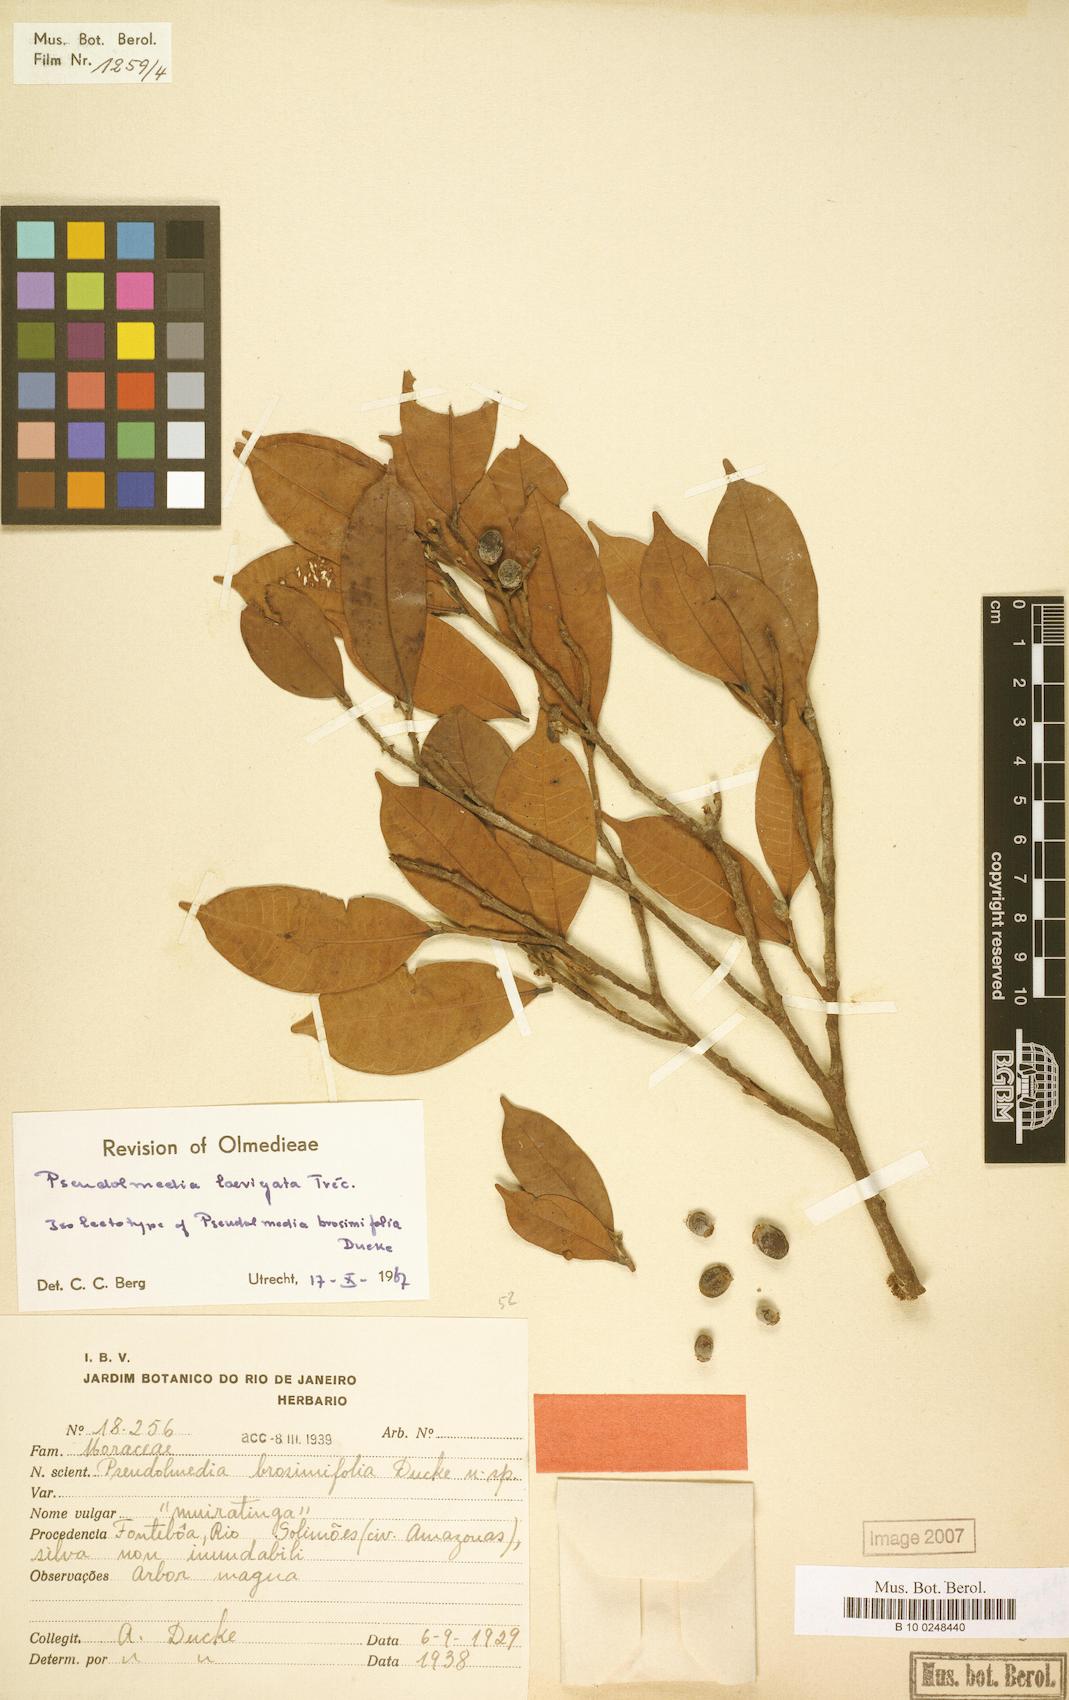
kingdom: Plantae
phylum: Tracheophyta
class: Magnoliopsida
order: Rosales
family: Moraceae
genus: Pseudolmedia
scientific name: Pseudolmedia laevigata
